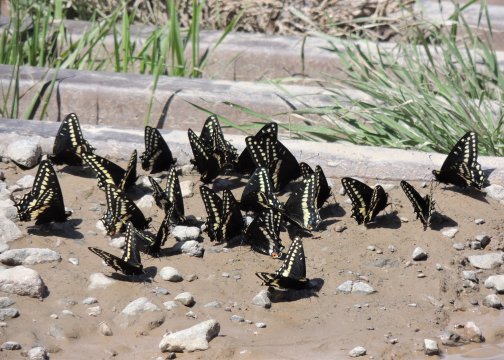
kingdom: Animalia
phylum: Arthropoda
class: Insecta
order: Lepidoptera
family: Papilionidae
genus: Papilio
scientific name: Papilio indra
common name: Indra Swallowtail
